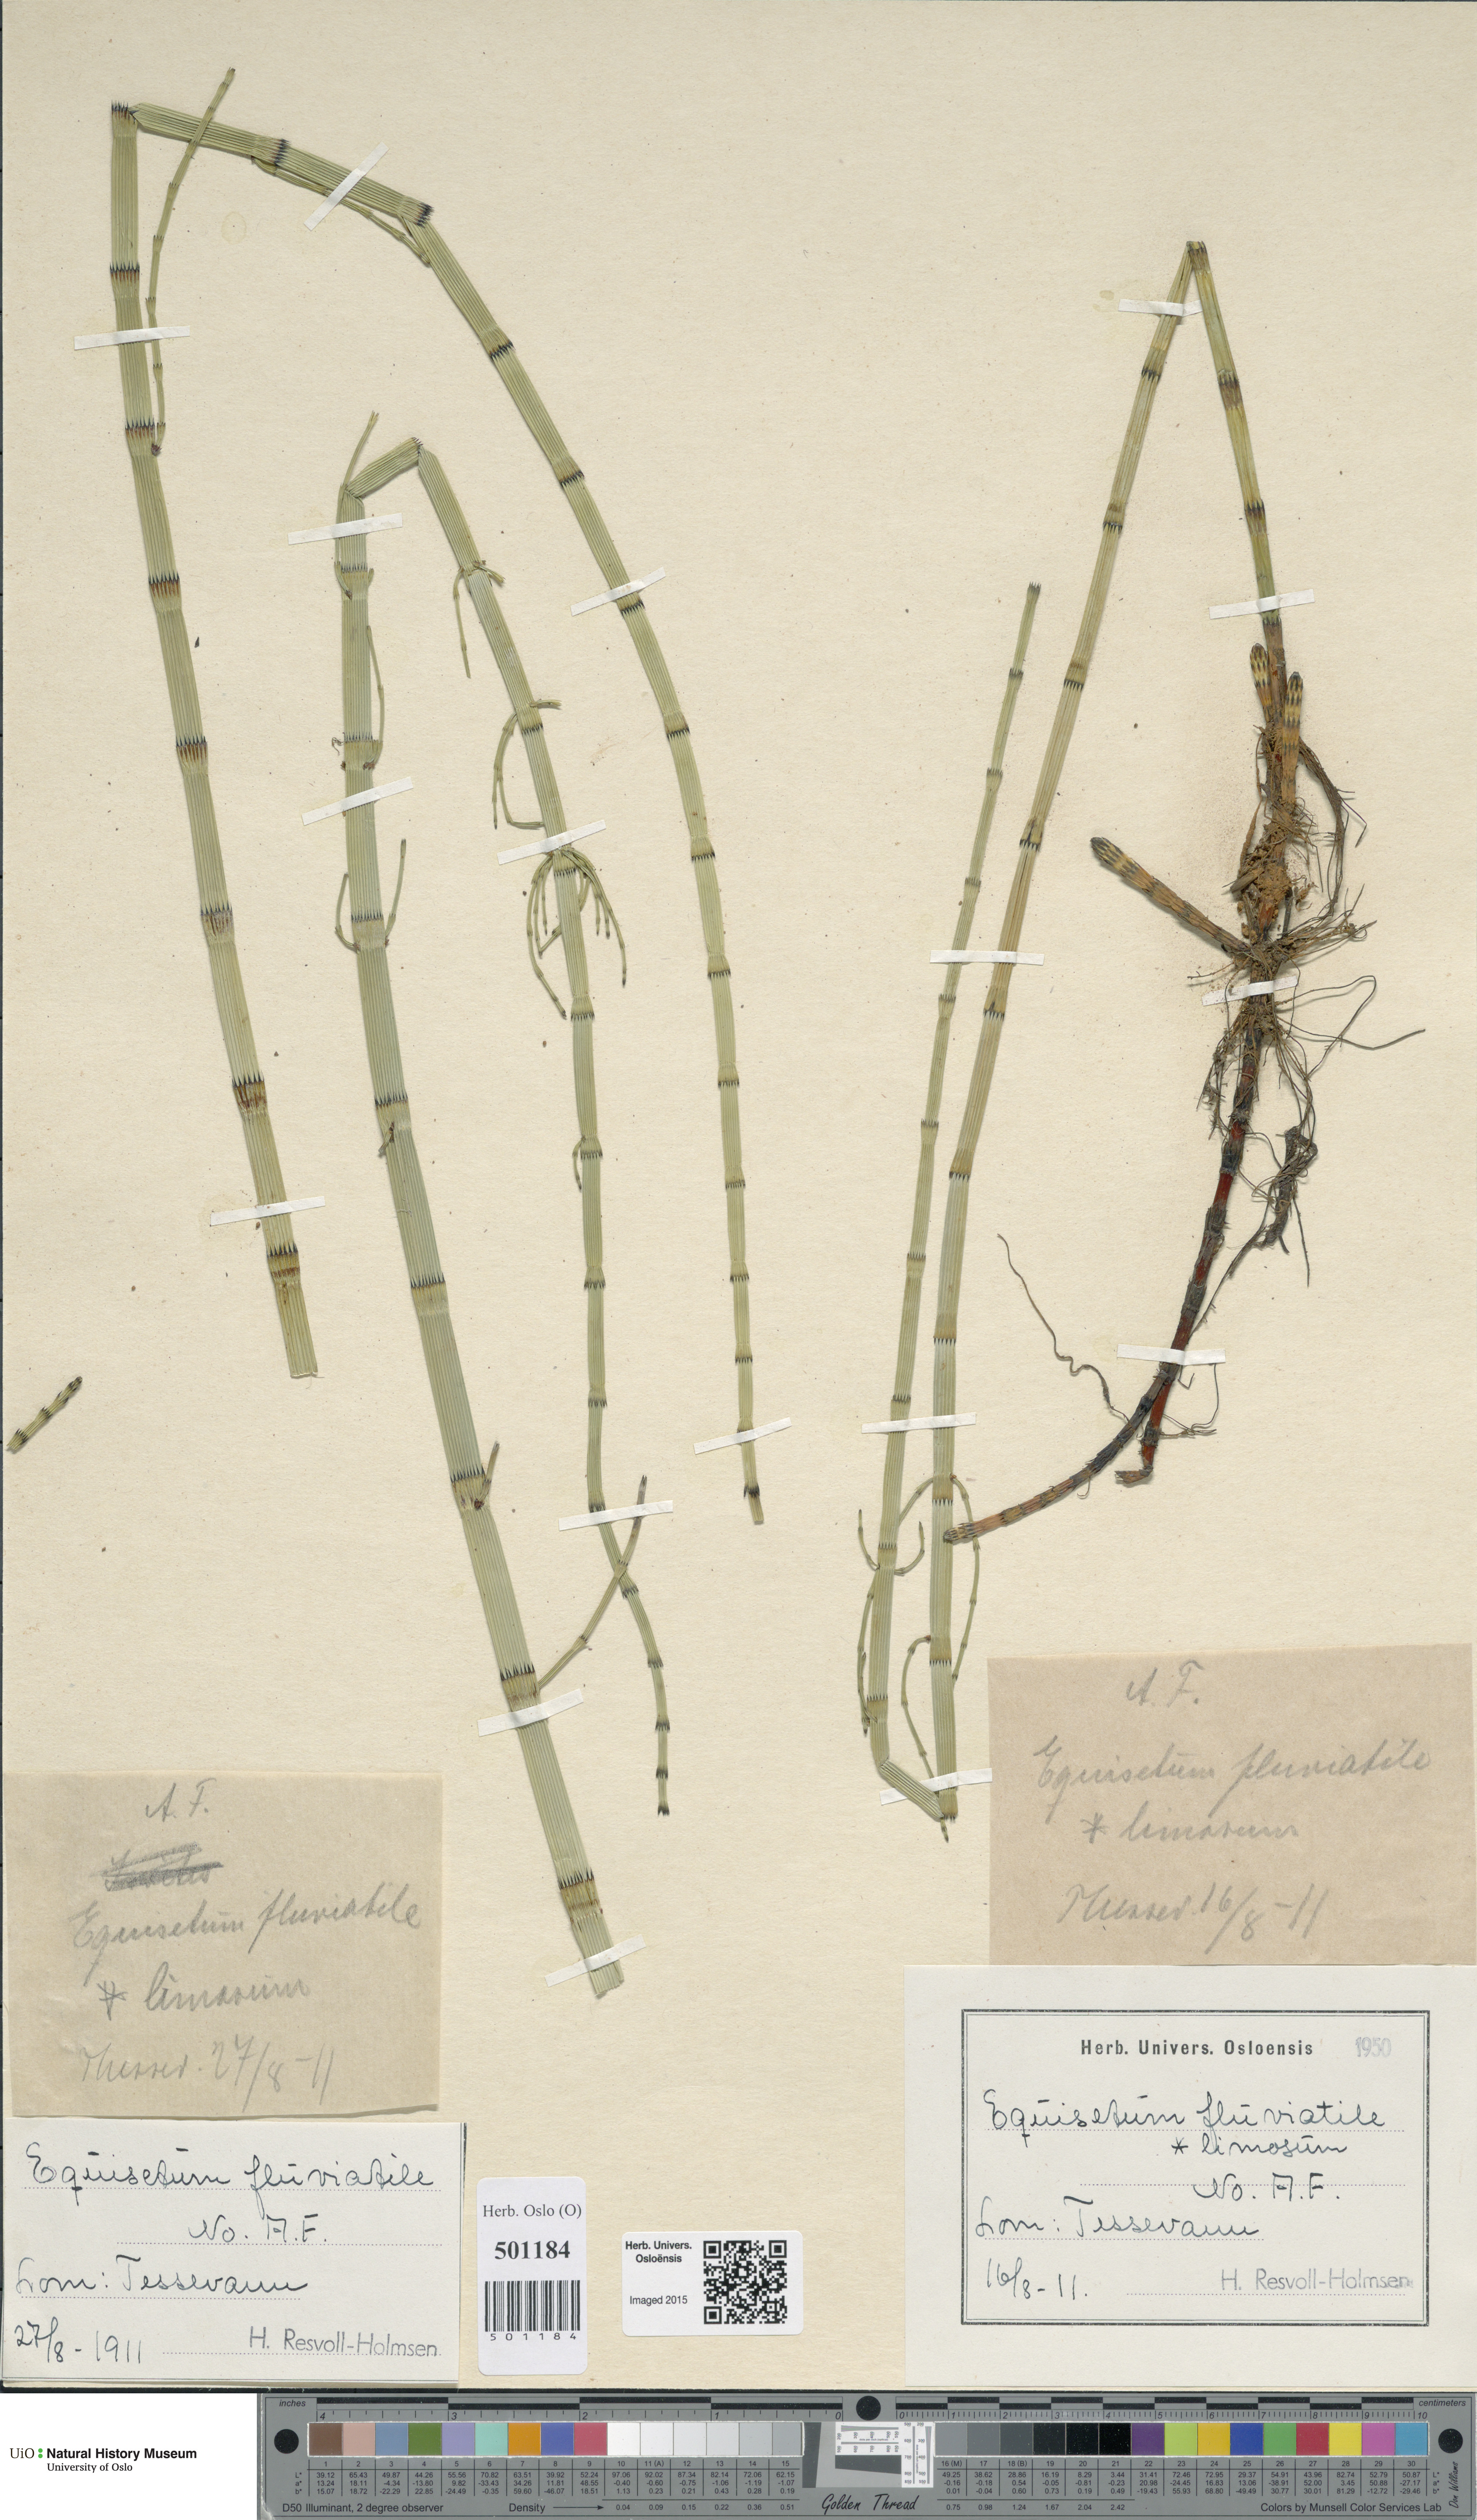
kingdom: Plantae
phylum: Tracheophyta
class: Polypodiopsida
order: Equisetales
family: Equisetaceae
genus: Equisetum
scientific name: Equisetum fluviatile
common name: Water horsetail
